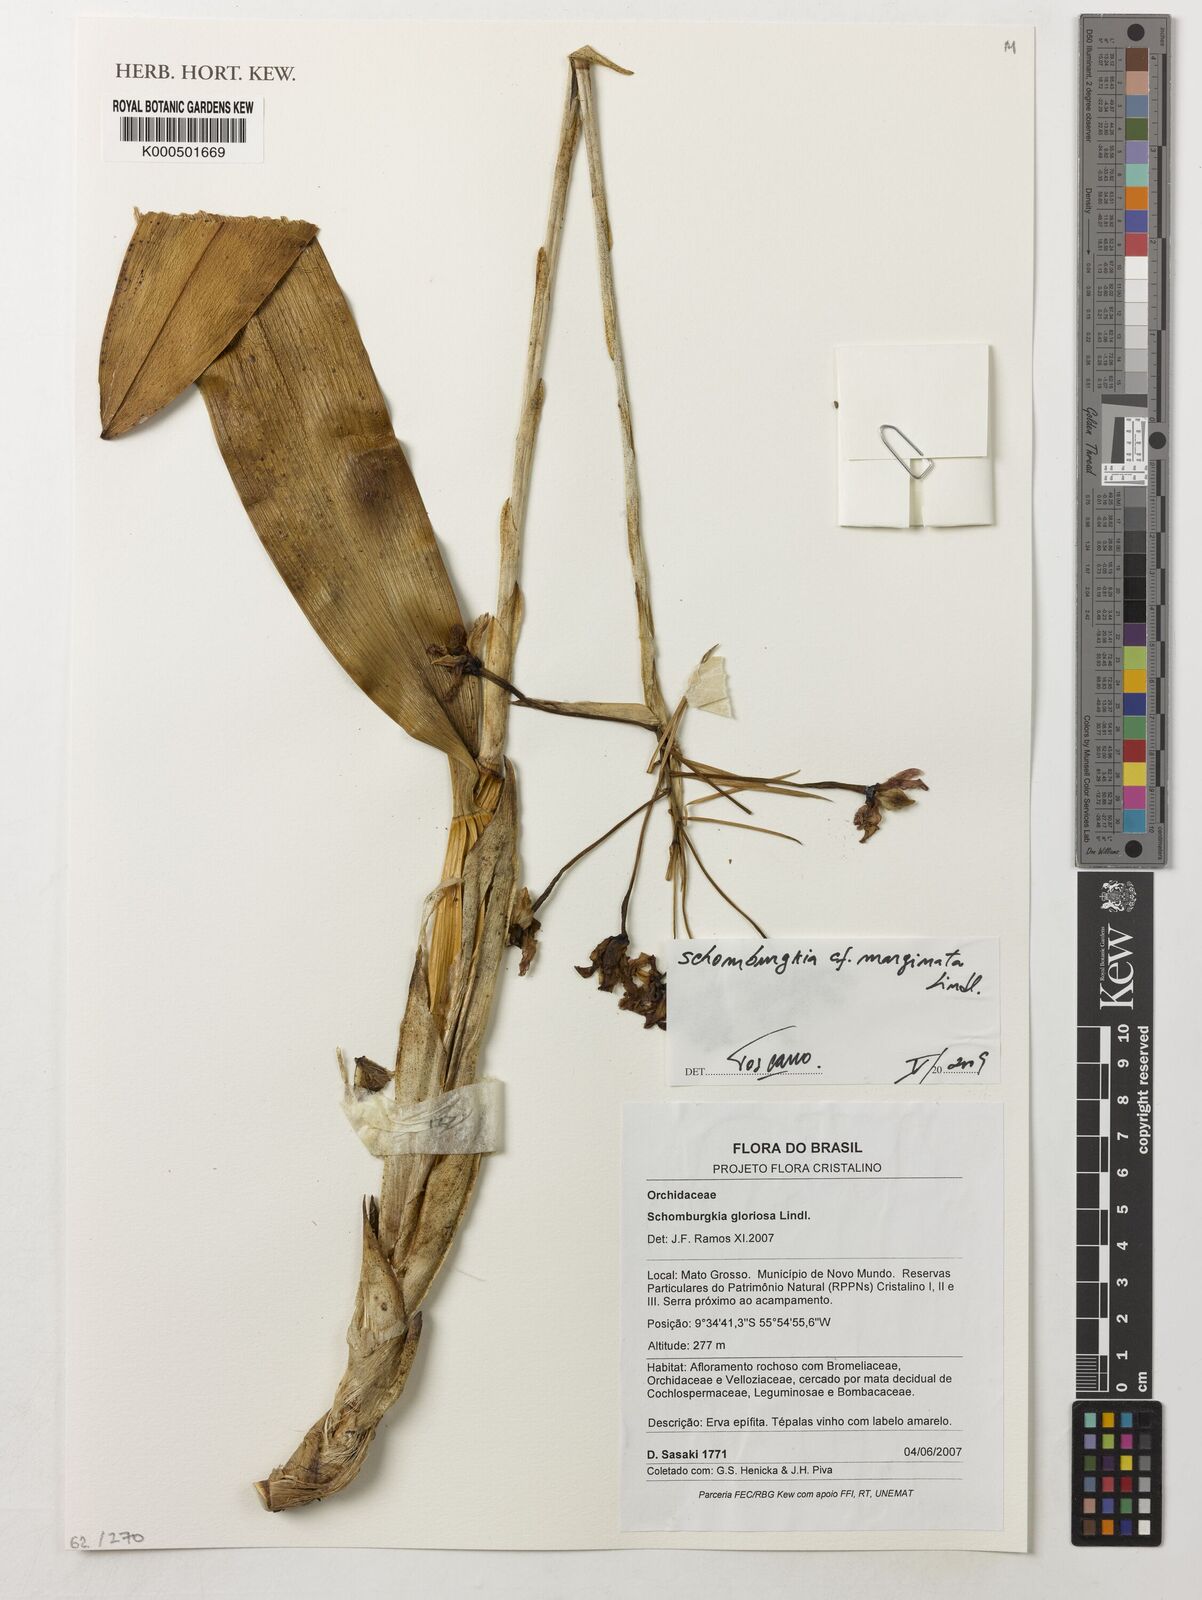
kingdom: Plantae
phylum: Tracheophyta
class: Liliopsida
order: Asparagales
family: Orchidaceae
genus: Laelia
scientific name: Laelia marginata
